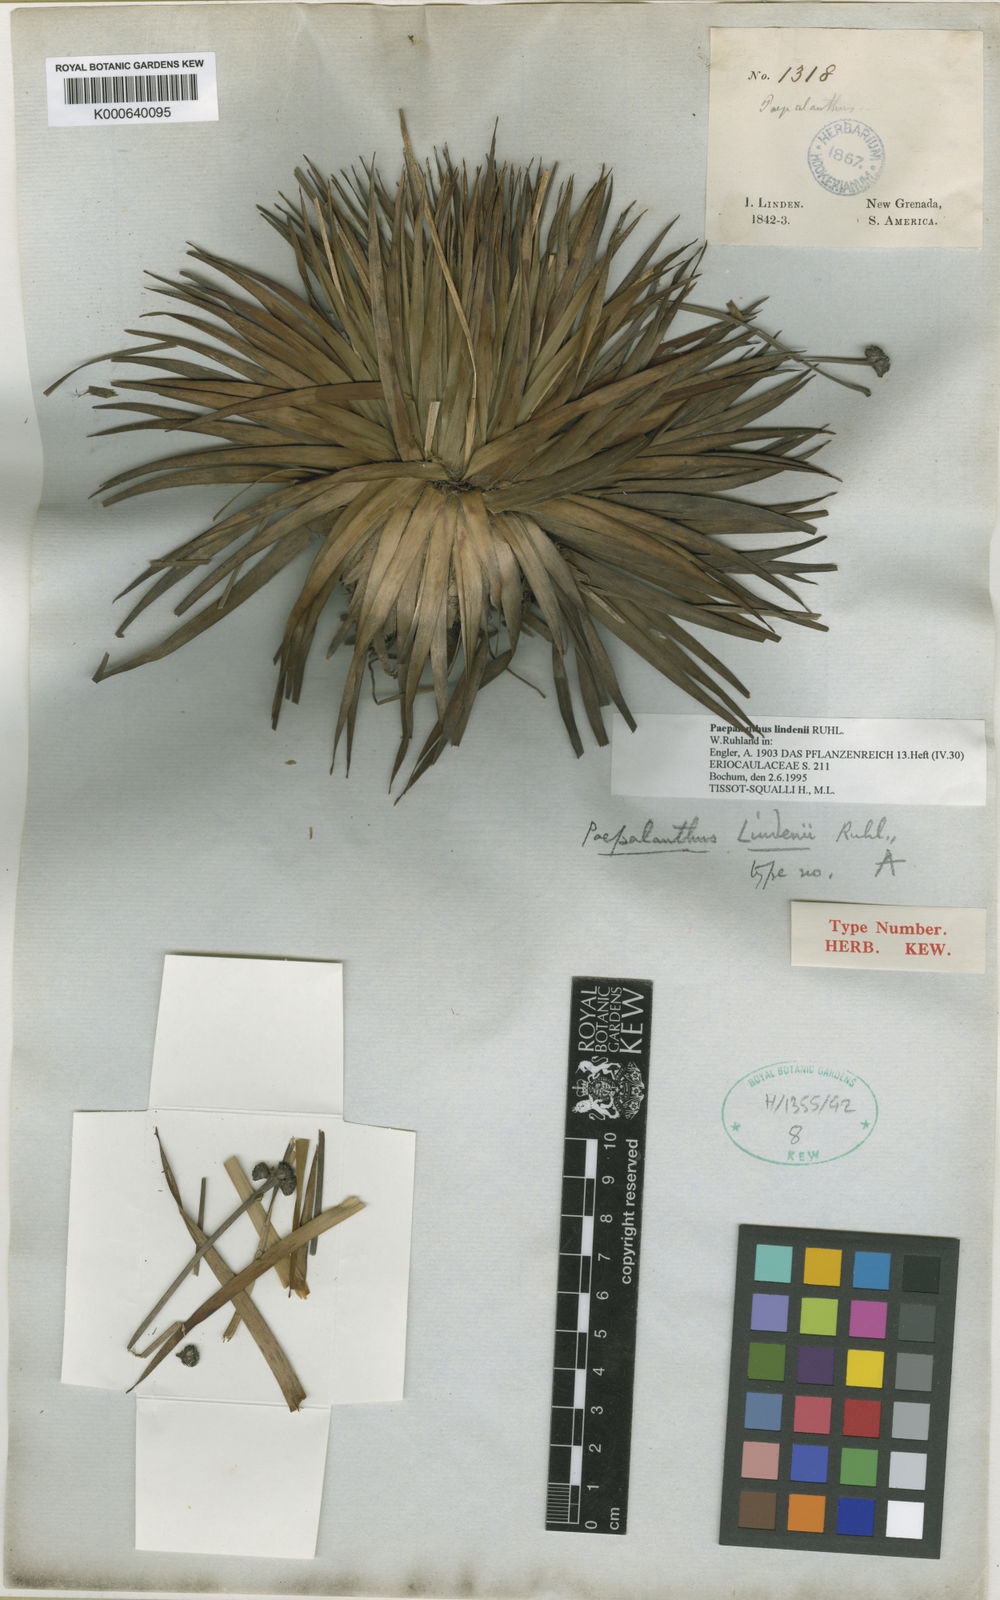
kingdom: Plantae
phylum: Tracheophyta
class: Liliopsida
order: Poales
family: Eriocaulaceae
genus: Paepalanthus
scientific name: Paepalanthus lindenii
